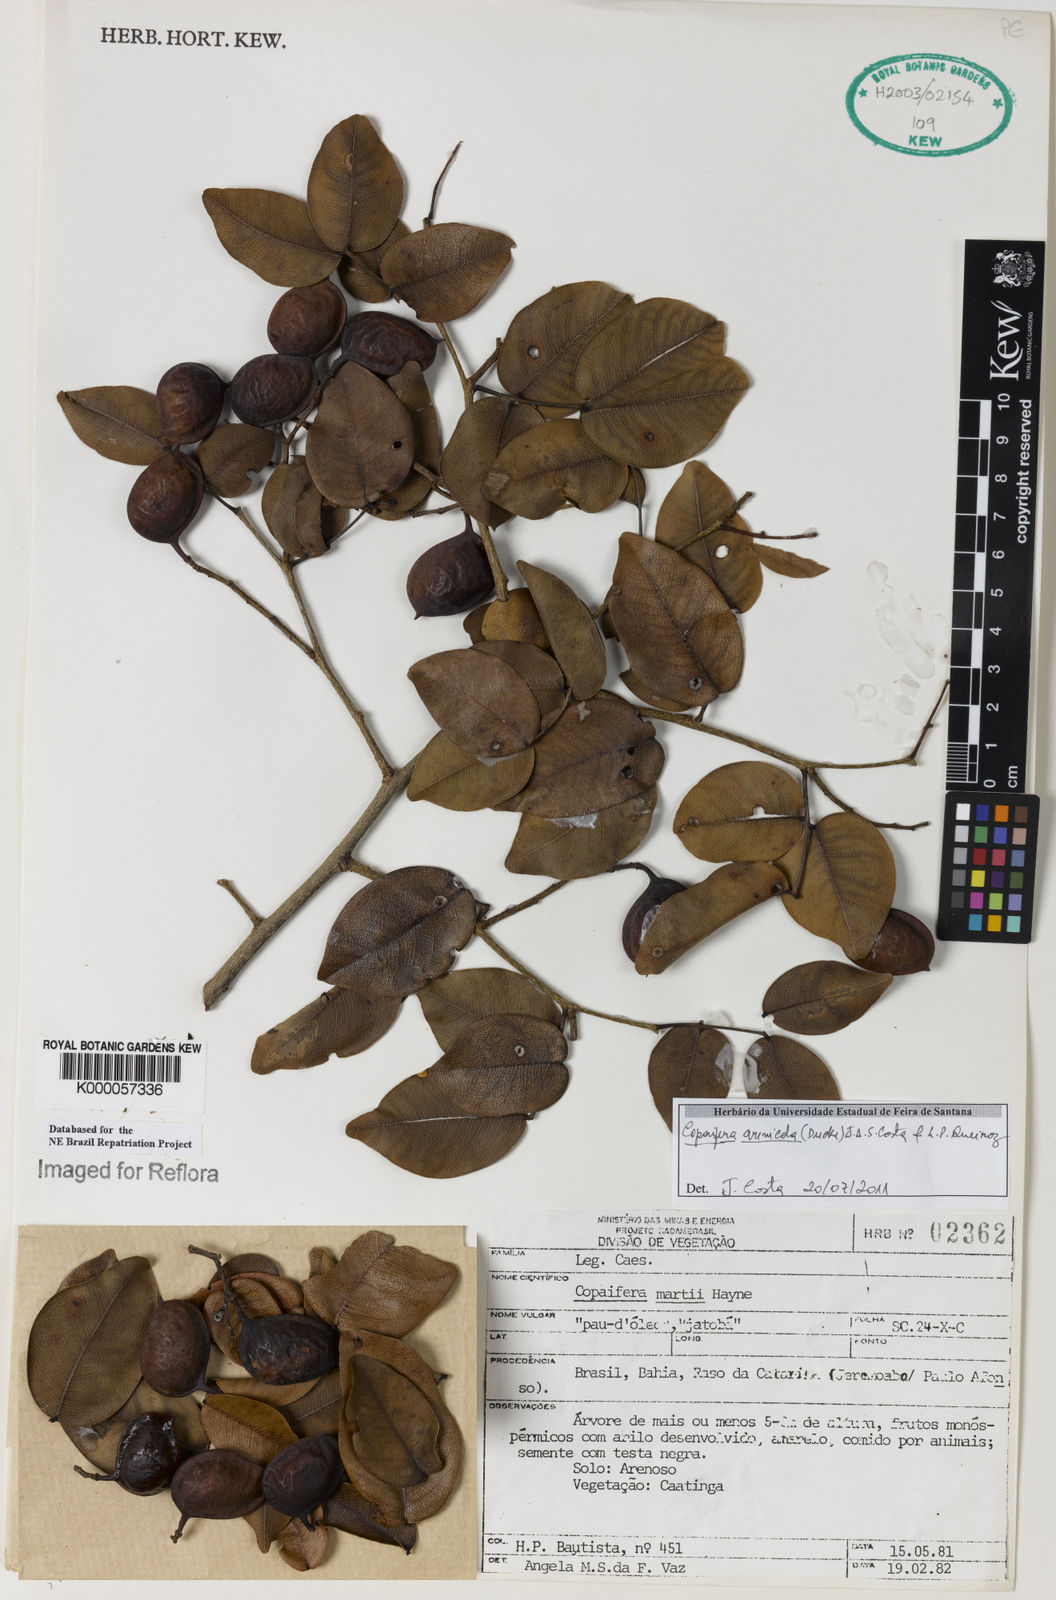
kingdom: Plantae
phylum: Tracheophyta
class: Magnoliopsida
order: Fabales
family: Fabaceae
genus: Copaifera
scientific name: Copaifera
